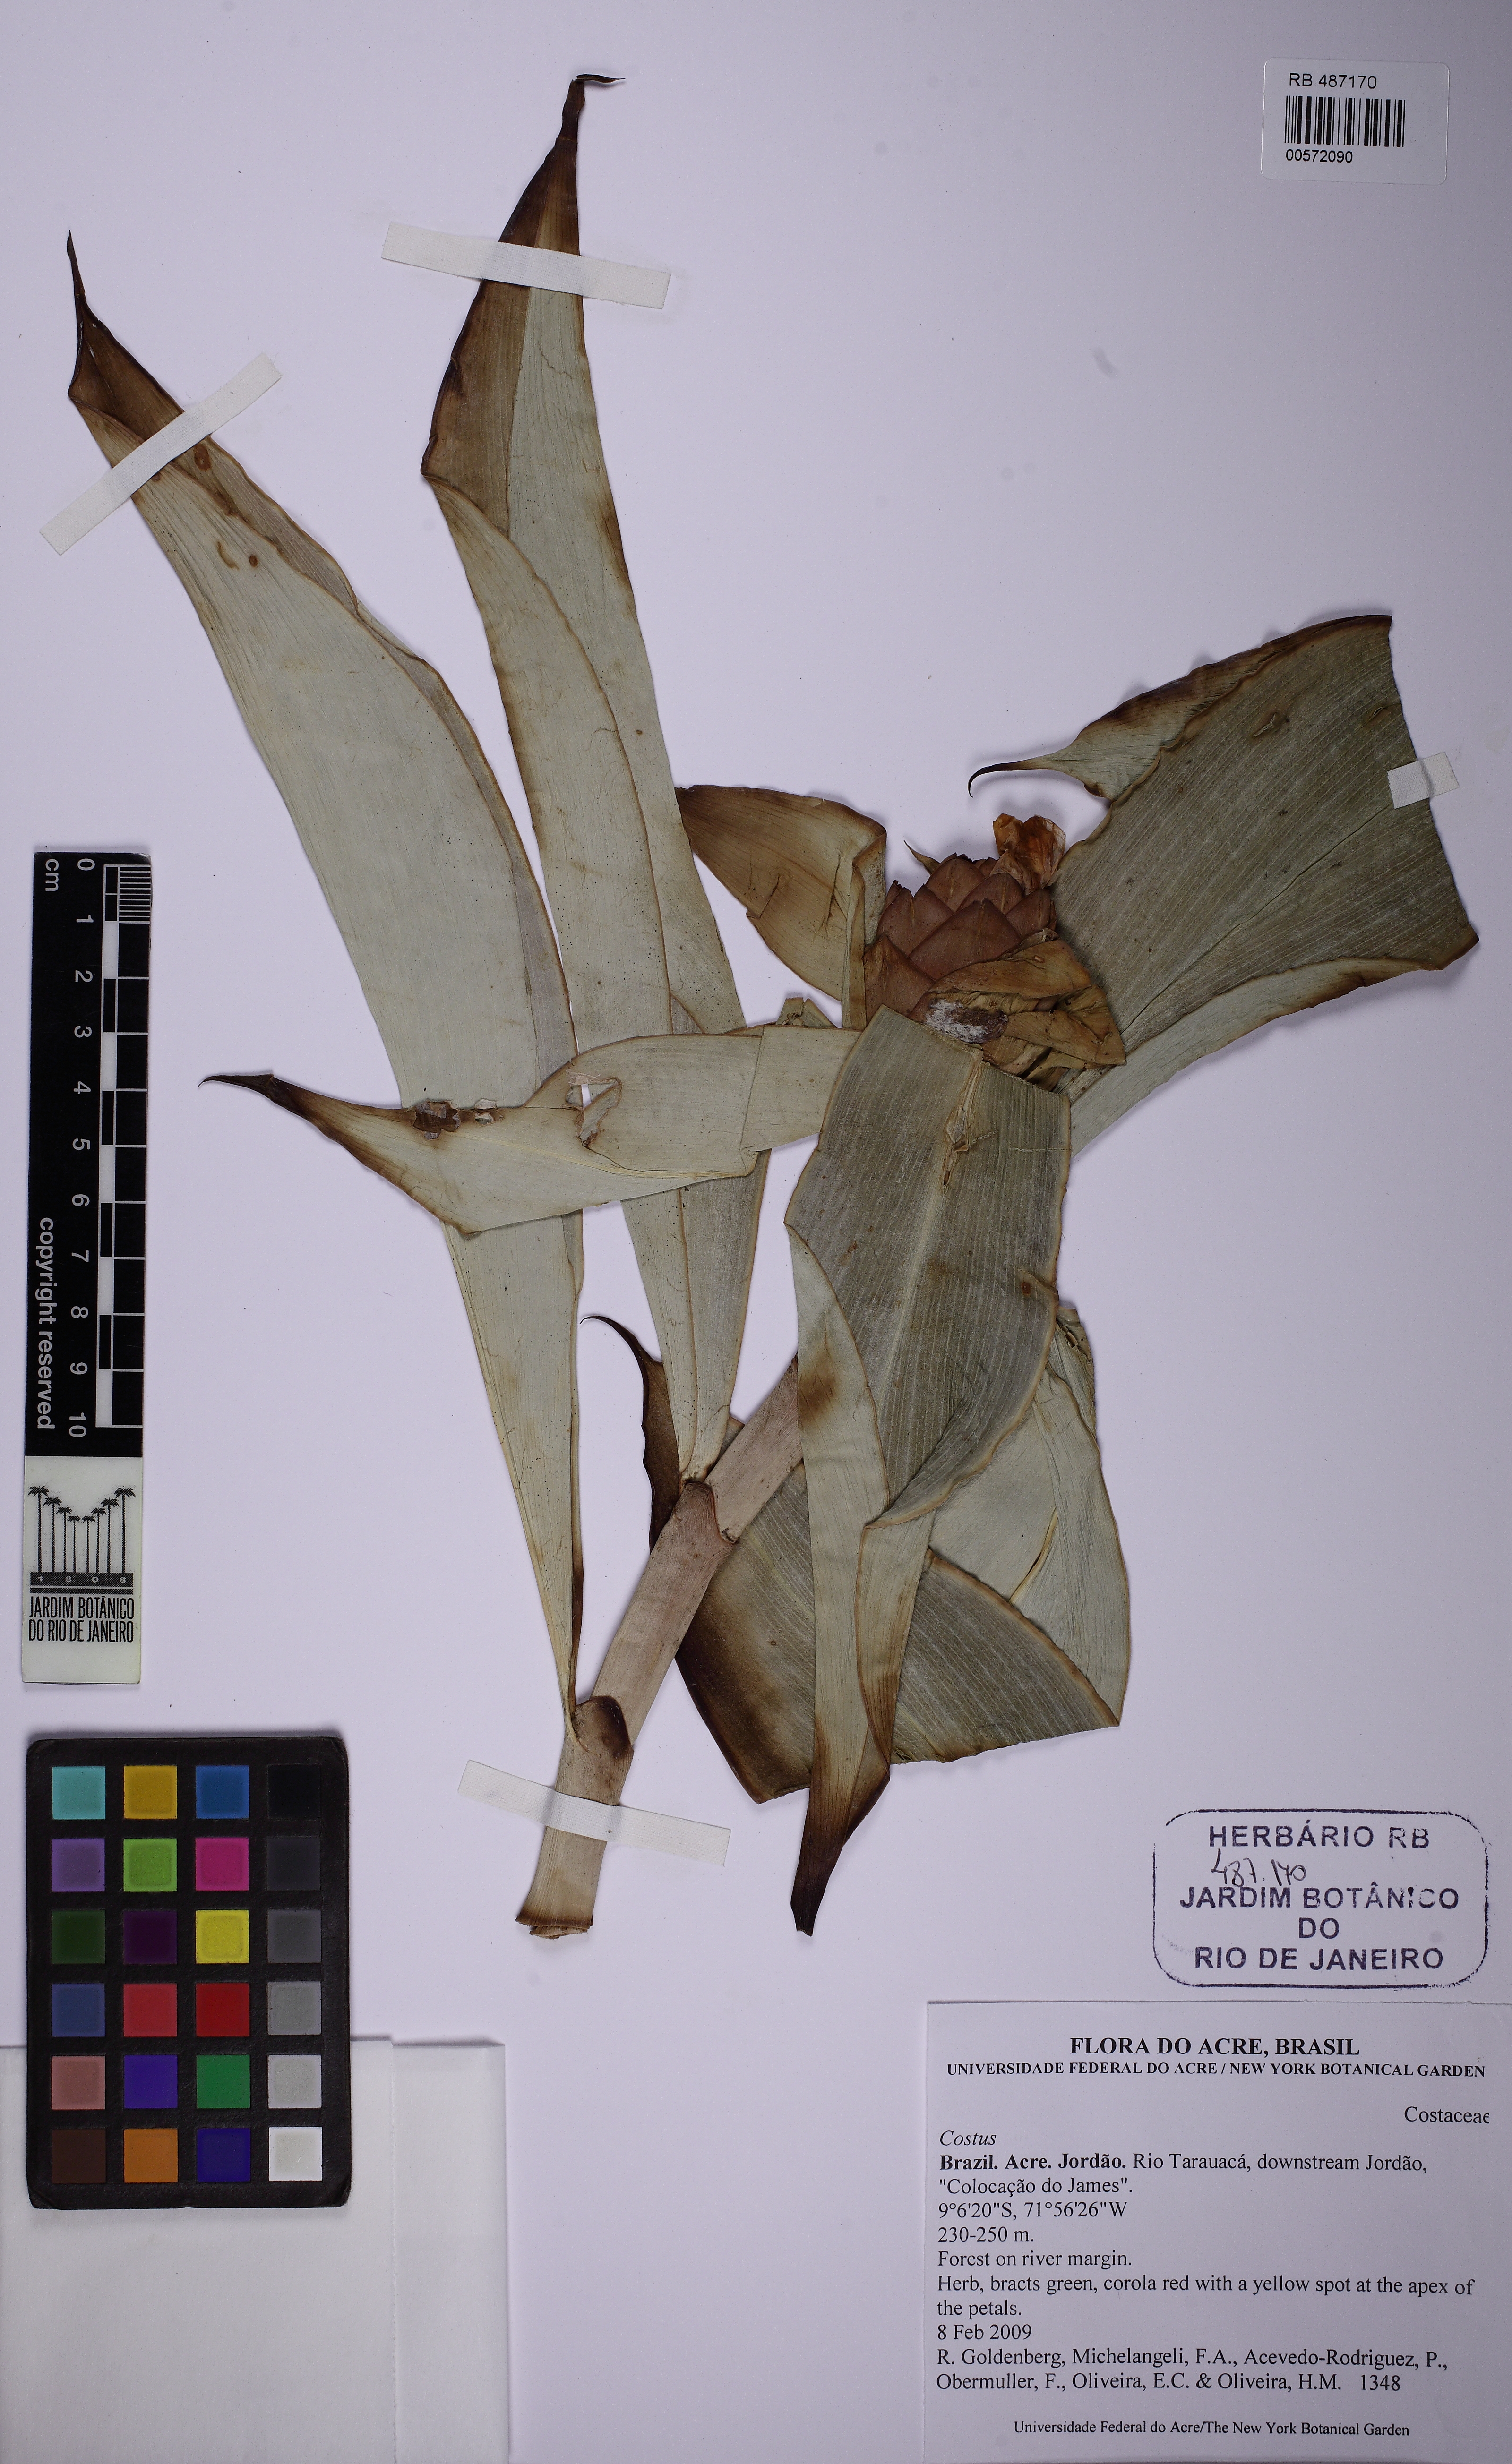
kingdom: Plantae
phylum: Tracheophyta
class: Liliopsida
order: Zingiberales
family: Costaceae
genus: Costus
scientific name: Costus spiralis
